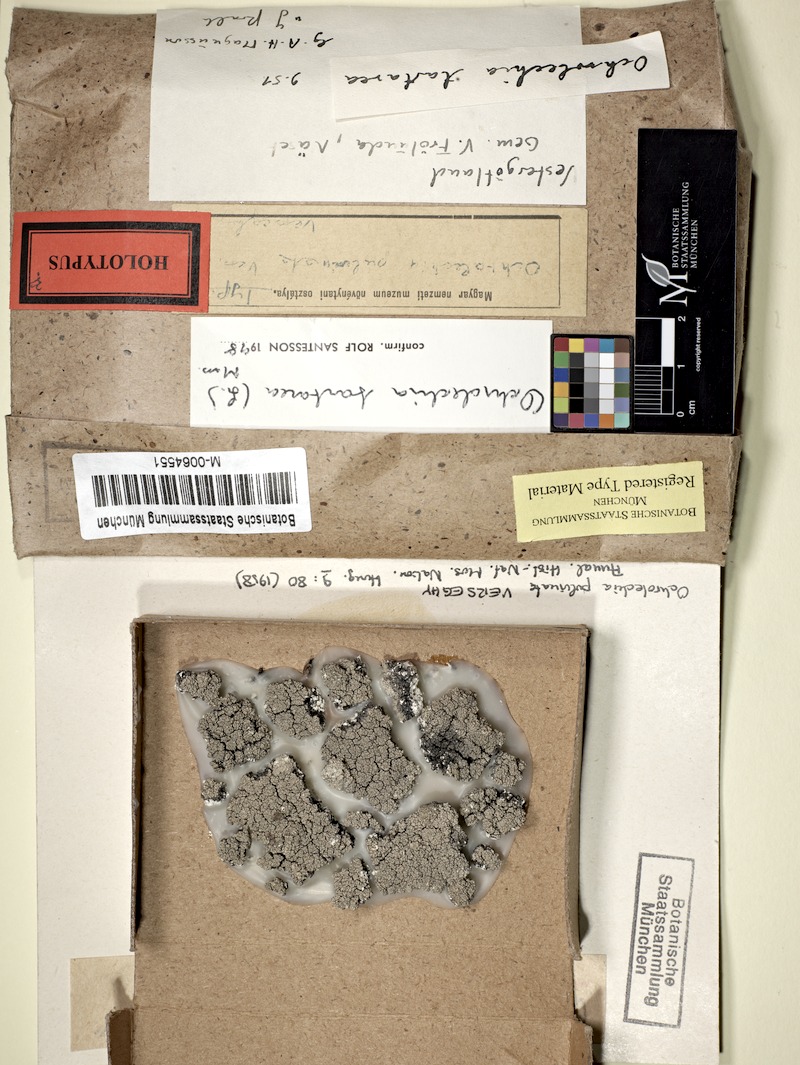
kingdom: Fungi
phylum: Ascomycota
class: Lecanoromycetes
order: Pertusariales
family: Ochrolechiaceae
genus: Ochrolechia
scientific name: Ochrolechia tartarea
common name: Cudbear
